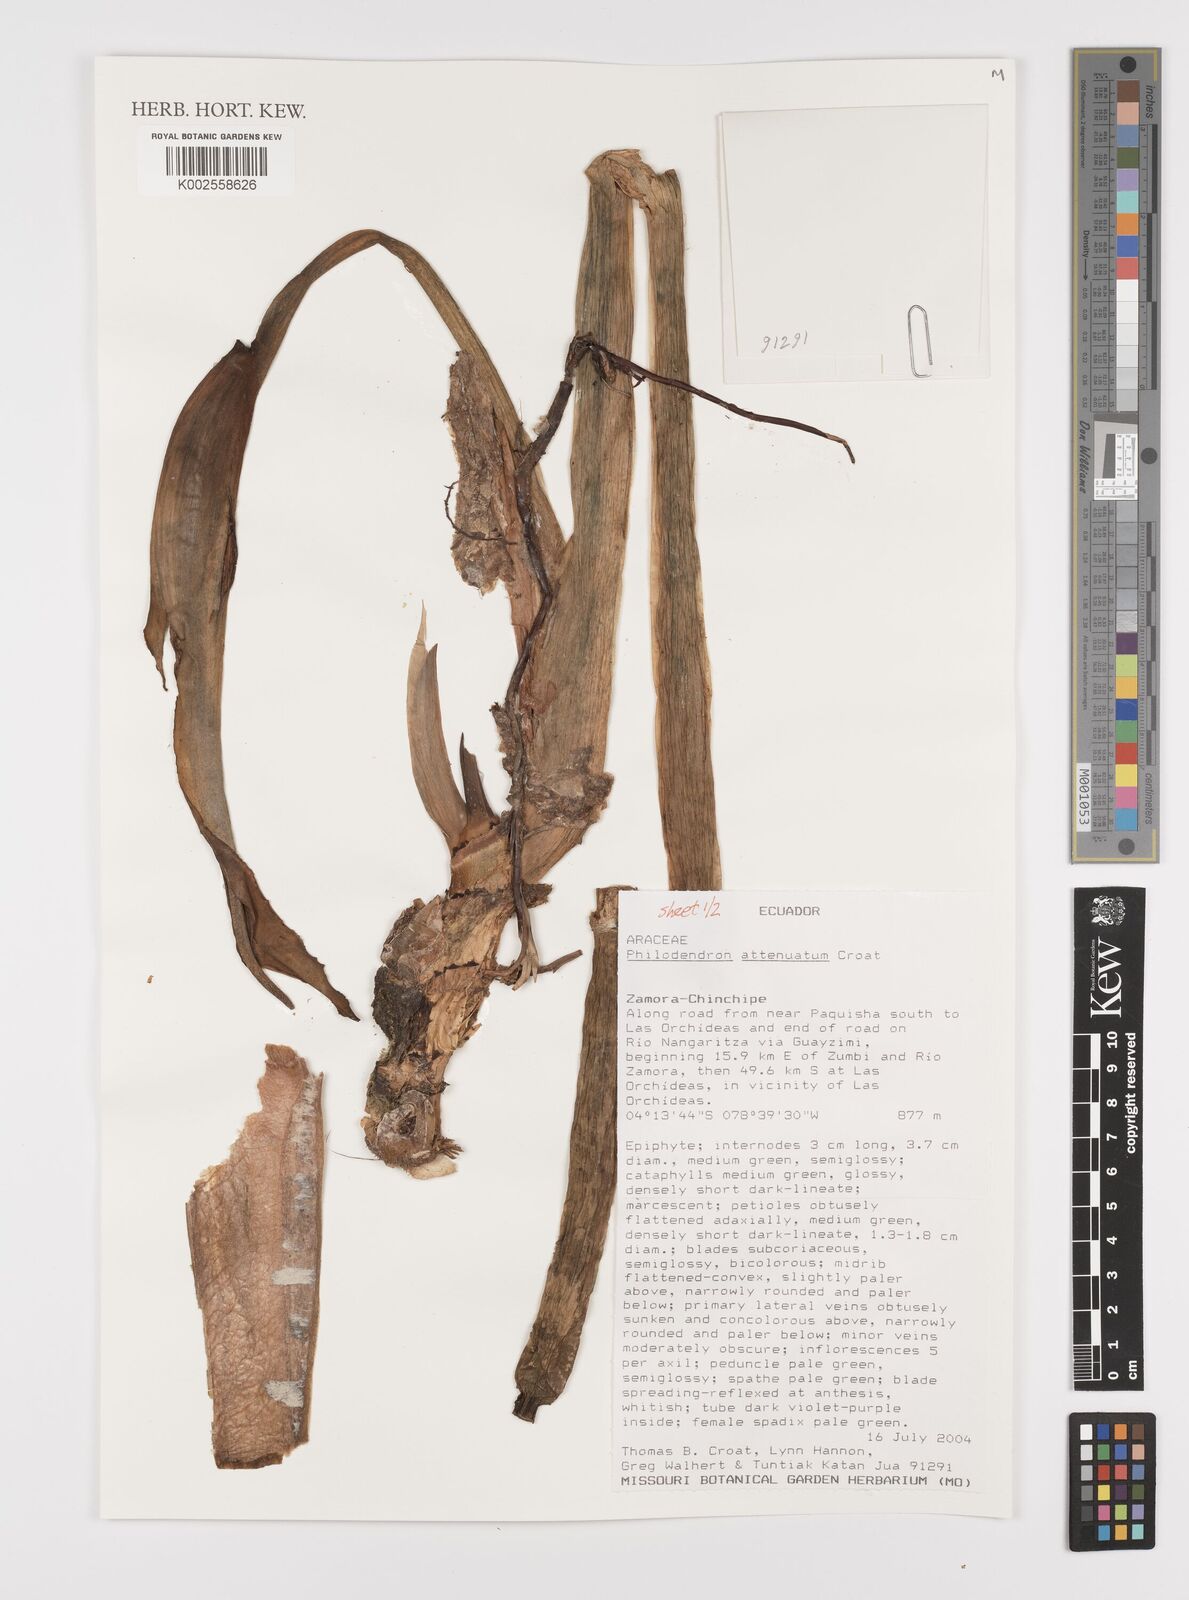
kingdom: Plantae
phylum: Tracheophyta
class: Liliopsida
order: Alismatales
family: Araceae
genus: Philodendron
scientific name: Philodendron attenuatum
